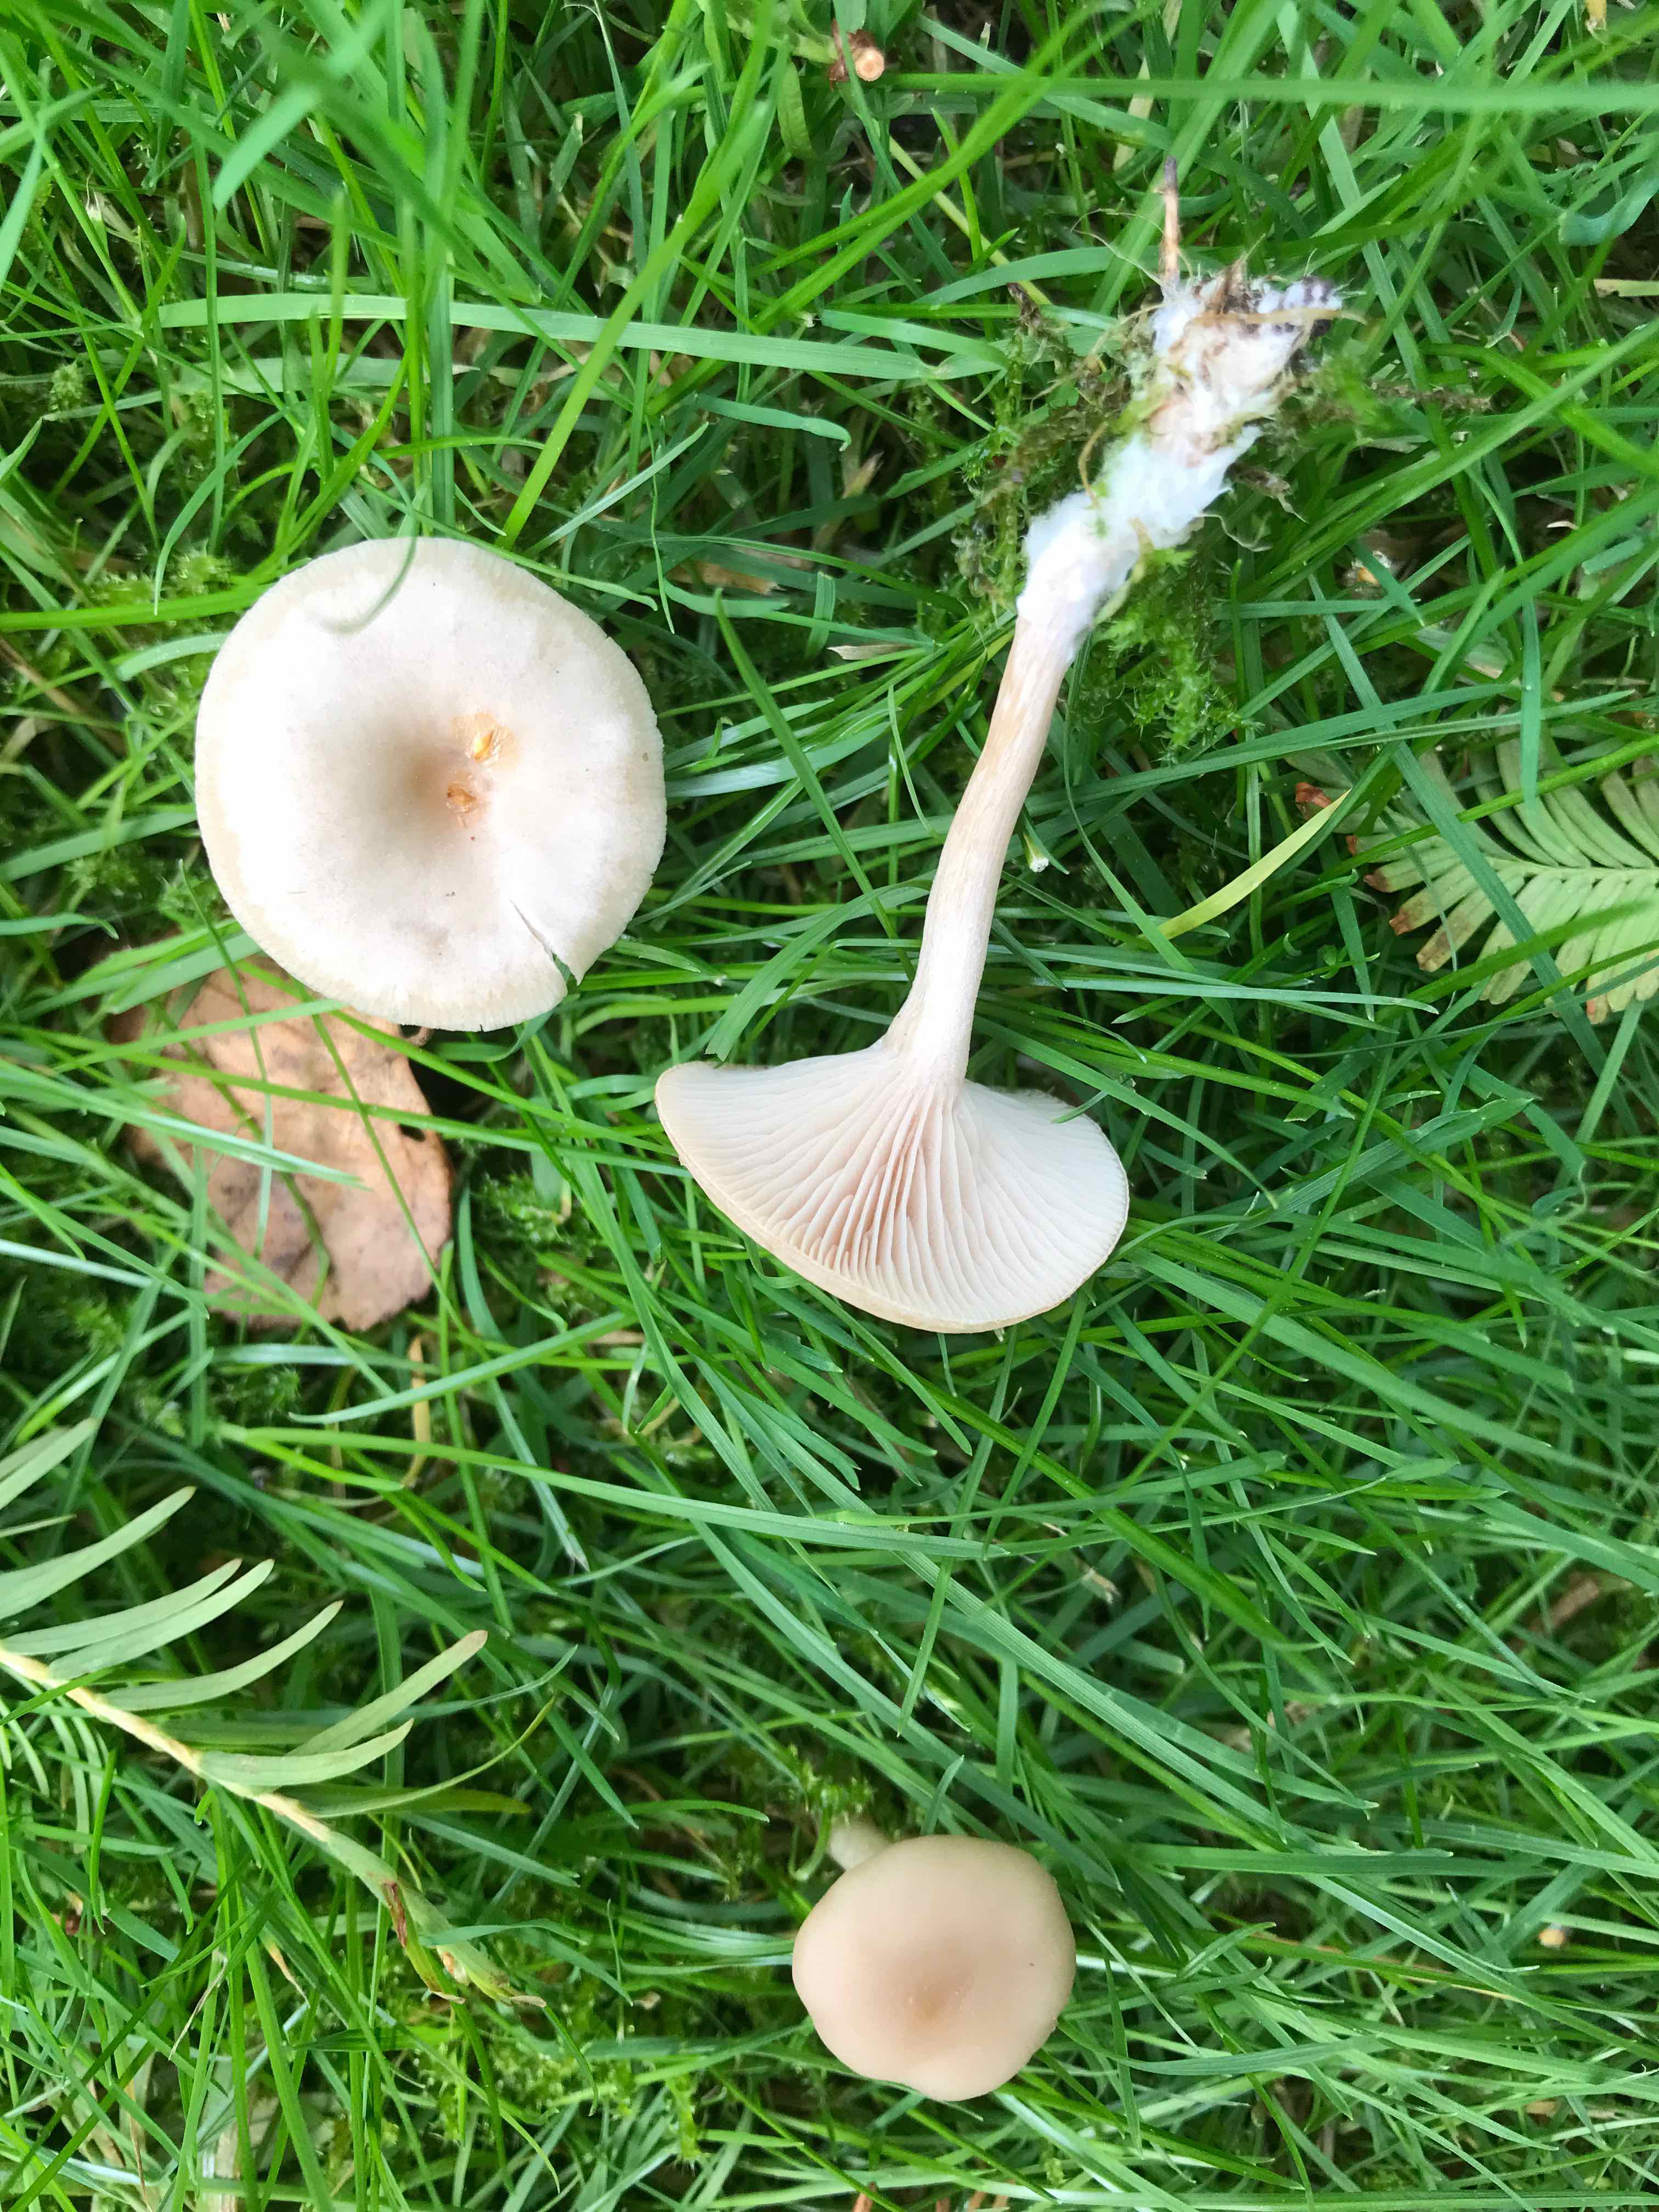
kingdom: Fungi
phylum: Basidiomycota
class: Agaricomycetes
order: Agaricales
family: Tricholomataceae
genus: Clitocybe
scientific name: Clitocybe fragrans
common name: vellugtende tragthat
